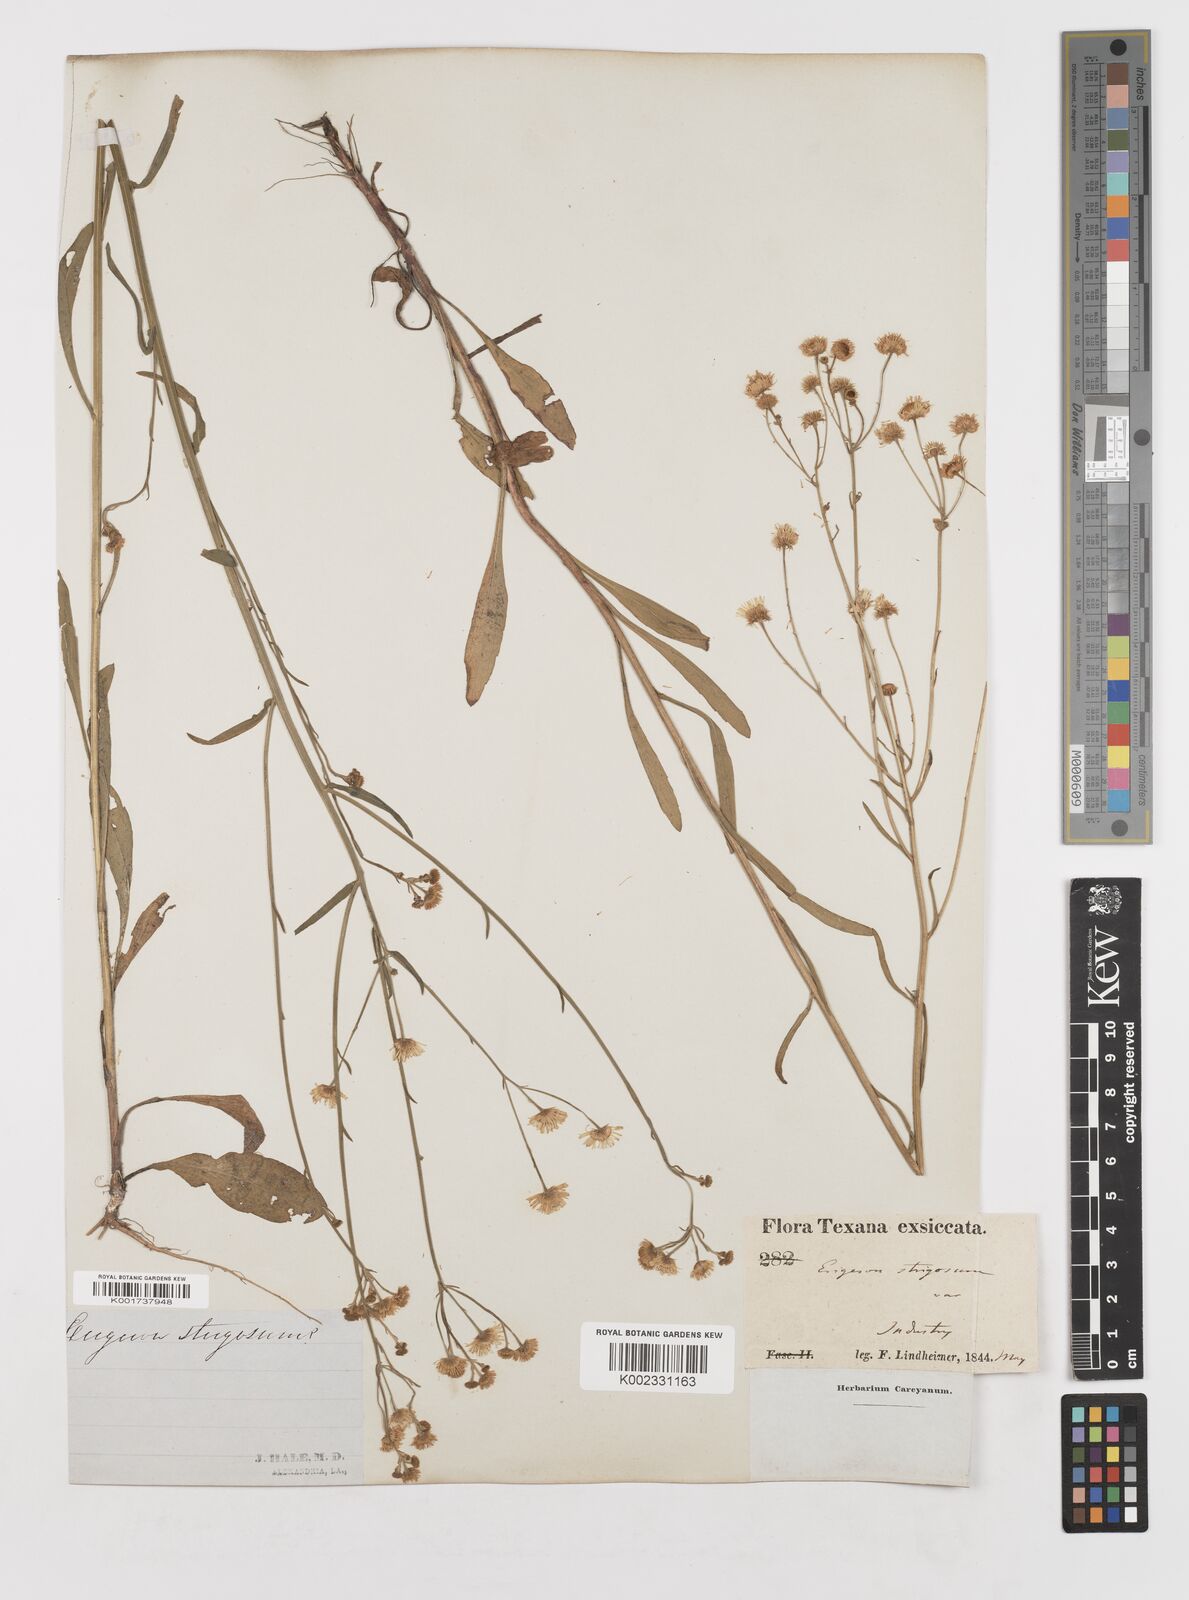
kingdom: Plantae
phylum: Tracheophyta
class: Magnoliopsida
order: Asterales
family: Asteraceae
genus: Erigeron
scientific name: Erigeron strigosus
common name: Common eastern fleabane
